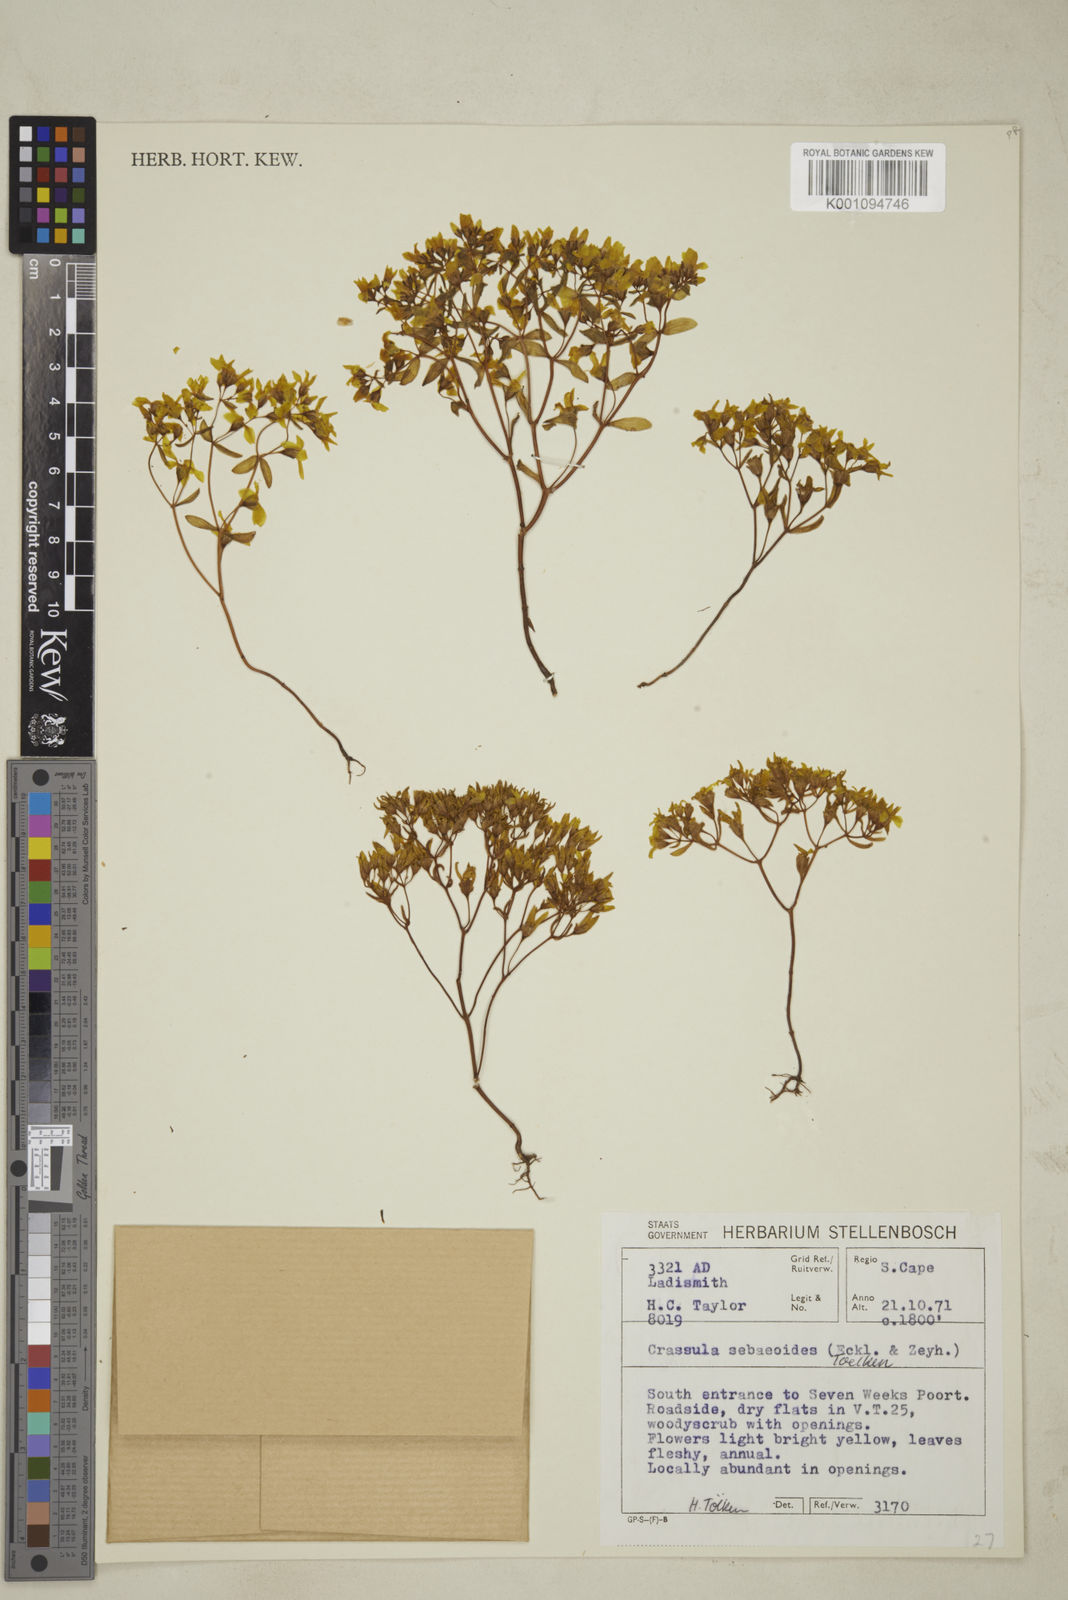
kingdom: Plantae
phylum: Tracheophyta
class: Magnoliopsida
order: Saxifragales
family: Crassulaceae
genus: Crassula
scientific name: Crassula sebaeoides
